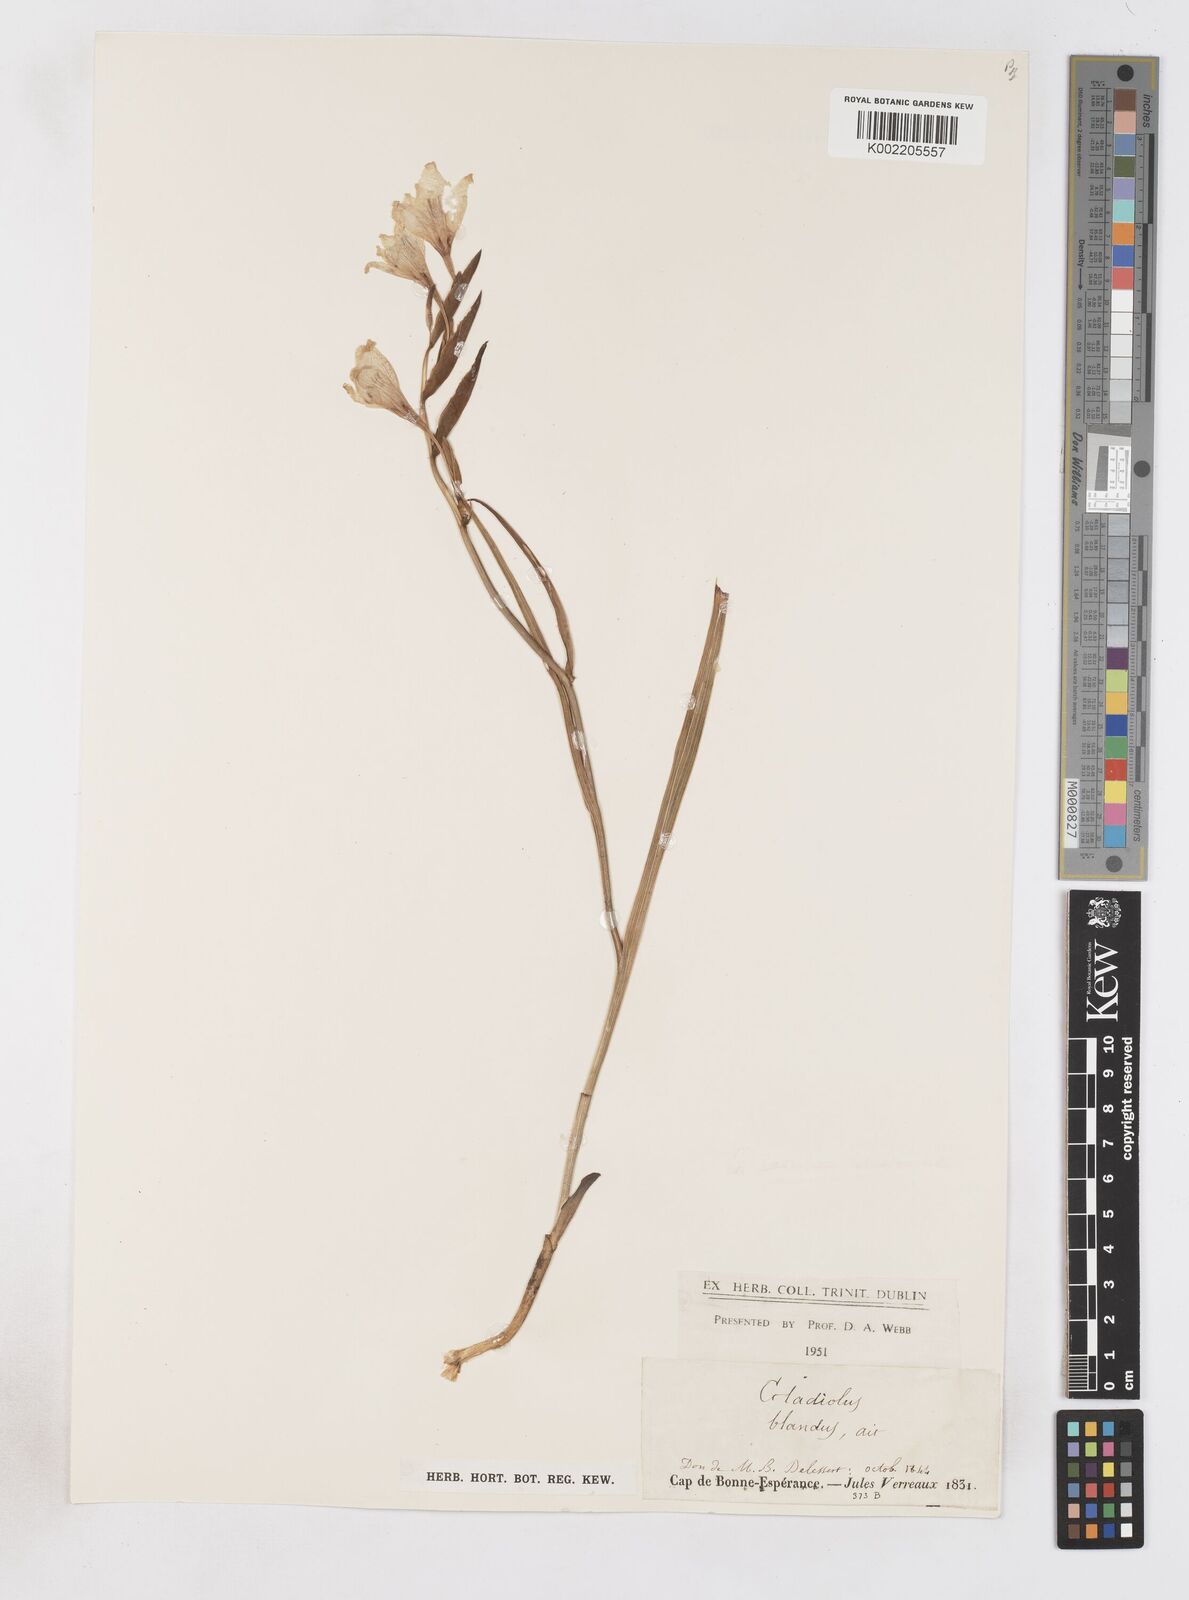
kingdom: Plantae
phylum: Tracheophyta
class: Liliopsida
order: Asparagales
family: Iridaceae
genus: Gladiolus
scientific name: Gladiolus carneus
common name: Painted-lady
